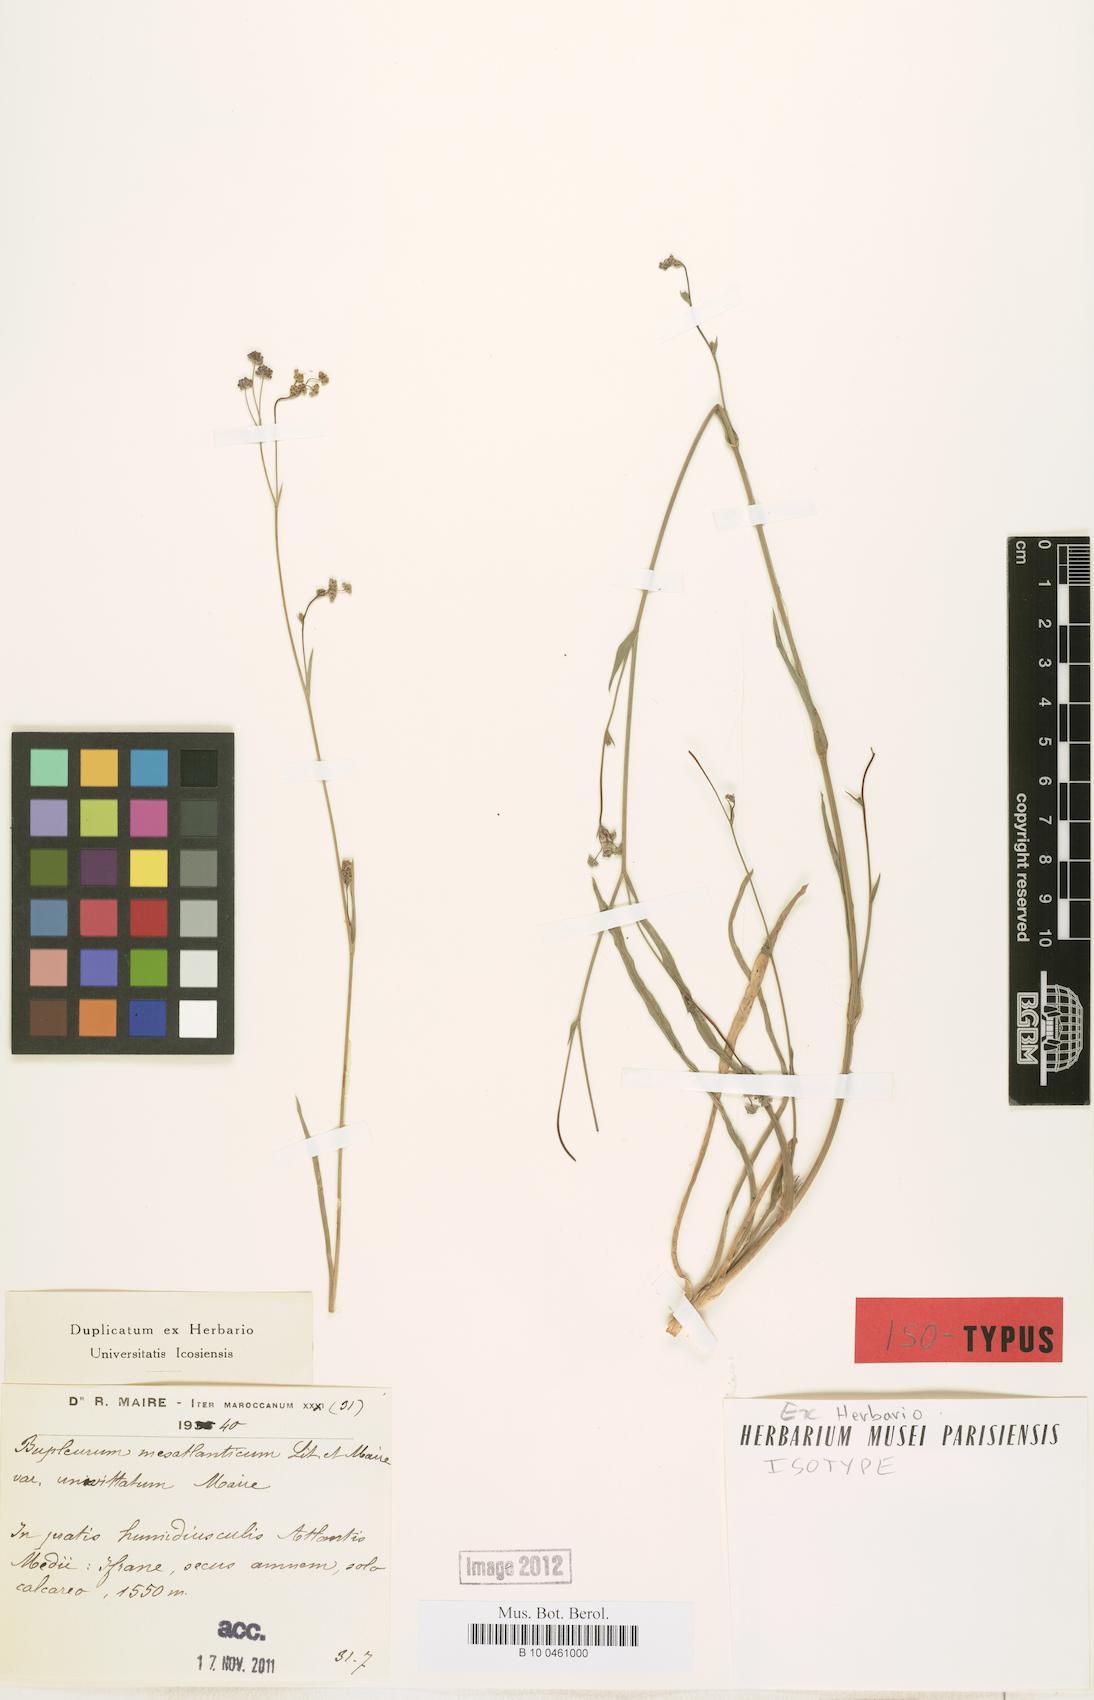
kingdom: Plantae
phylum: Tracheophyta
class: Magnoliopsida
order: Apiales
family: Apiaceae
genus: Bupleurum
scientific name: Bupleurum mesatlanticum
